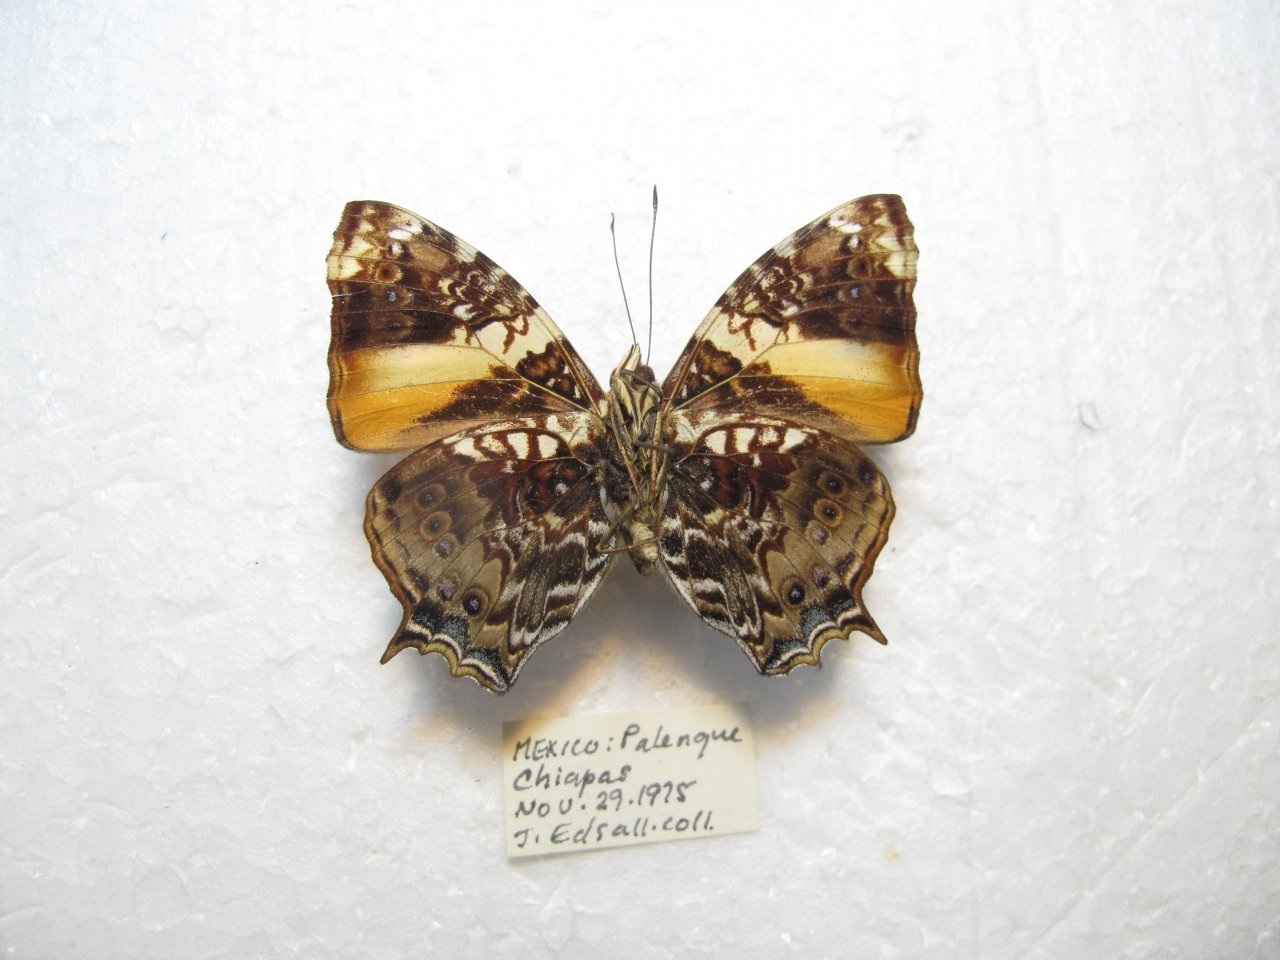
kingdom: Animalia
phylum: Arthropoda
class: Insecta
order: Lepidoptera
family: Nymphalidae
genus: Hypanartia
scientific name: Hypanartia godmanii
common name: Godman's Mapwing
